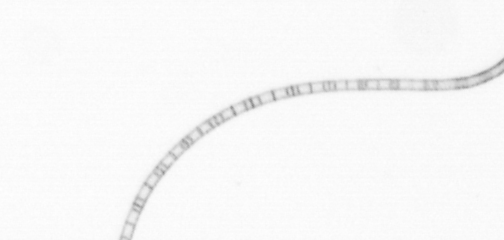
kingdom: Chromista
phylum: Ochrophyta
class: Bacillariophyceae
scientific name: Bacillariophyceae
